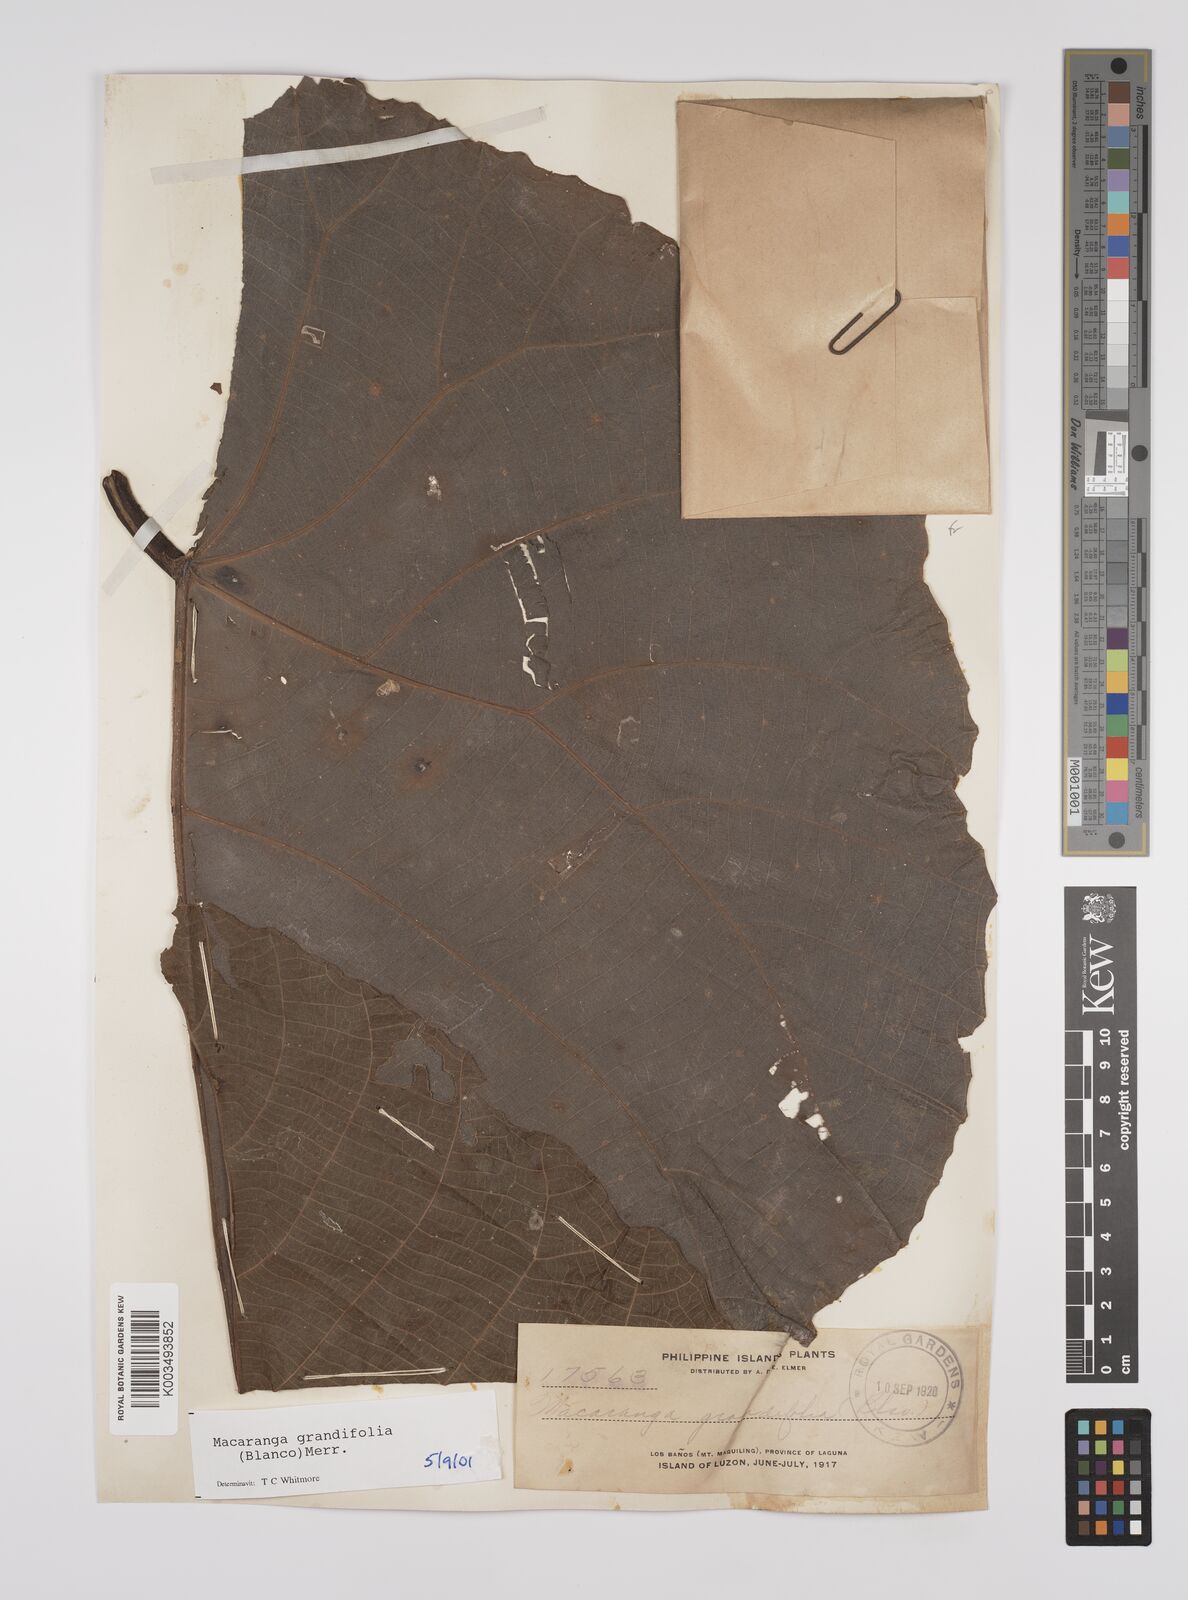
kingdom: Plantae
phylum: Tracheophyta
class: Magnoliopsida
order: Malpighiales
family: Euphorbiaceae
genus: Macaranga
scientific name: Macaranga grandifolia
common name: Coraltree
